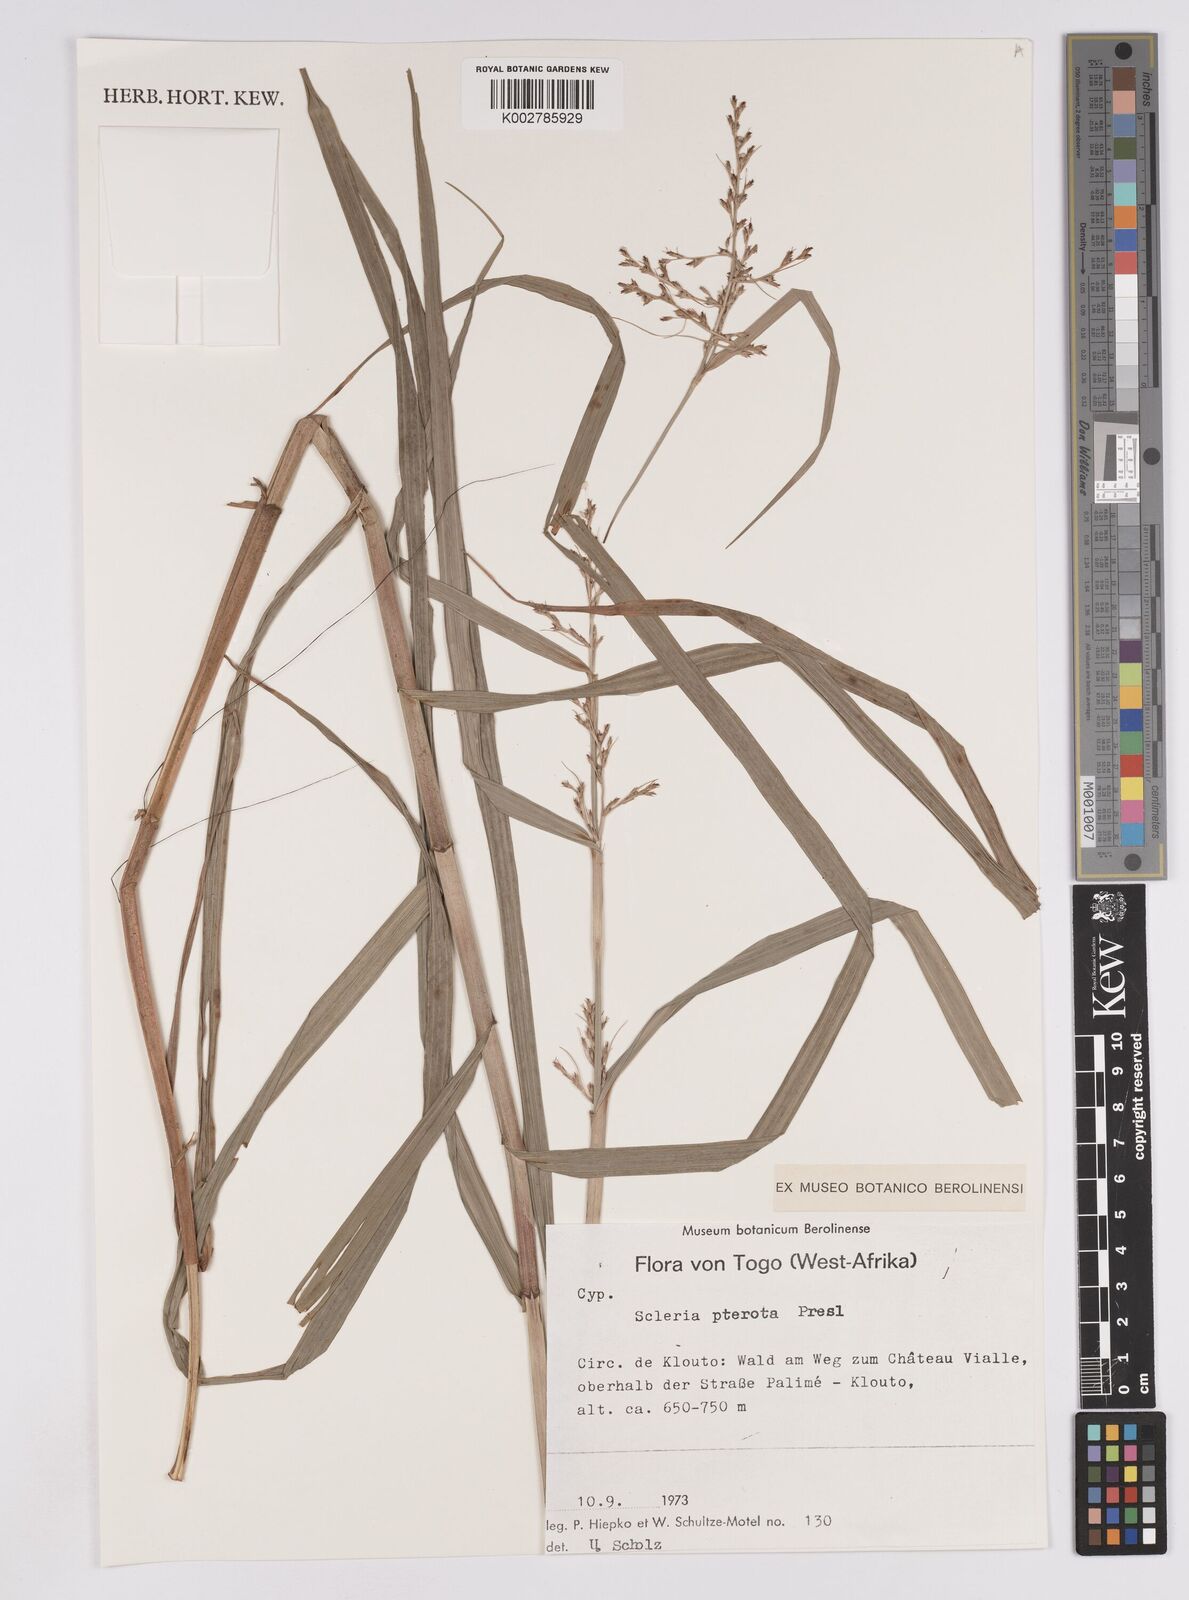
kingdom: Plantae
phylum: Tracheophyta
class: Liliopsida
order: Poales
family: Cyperaceae
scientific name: Cyperaceae
